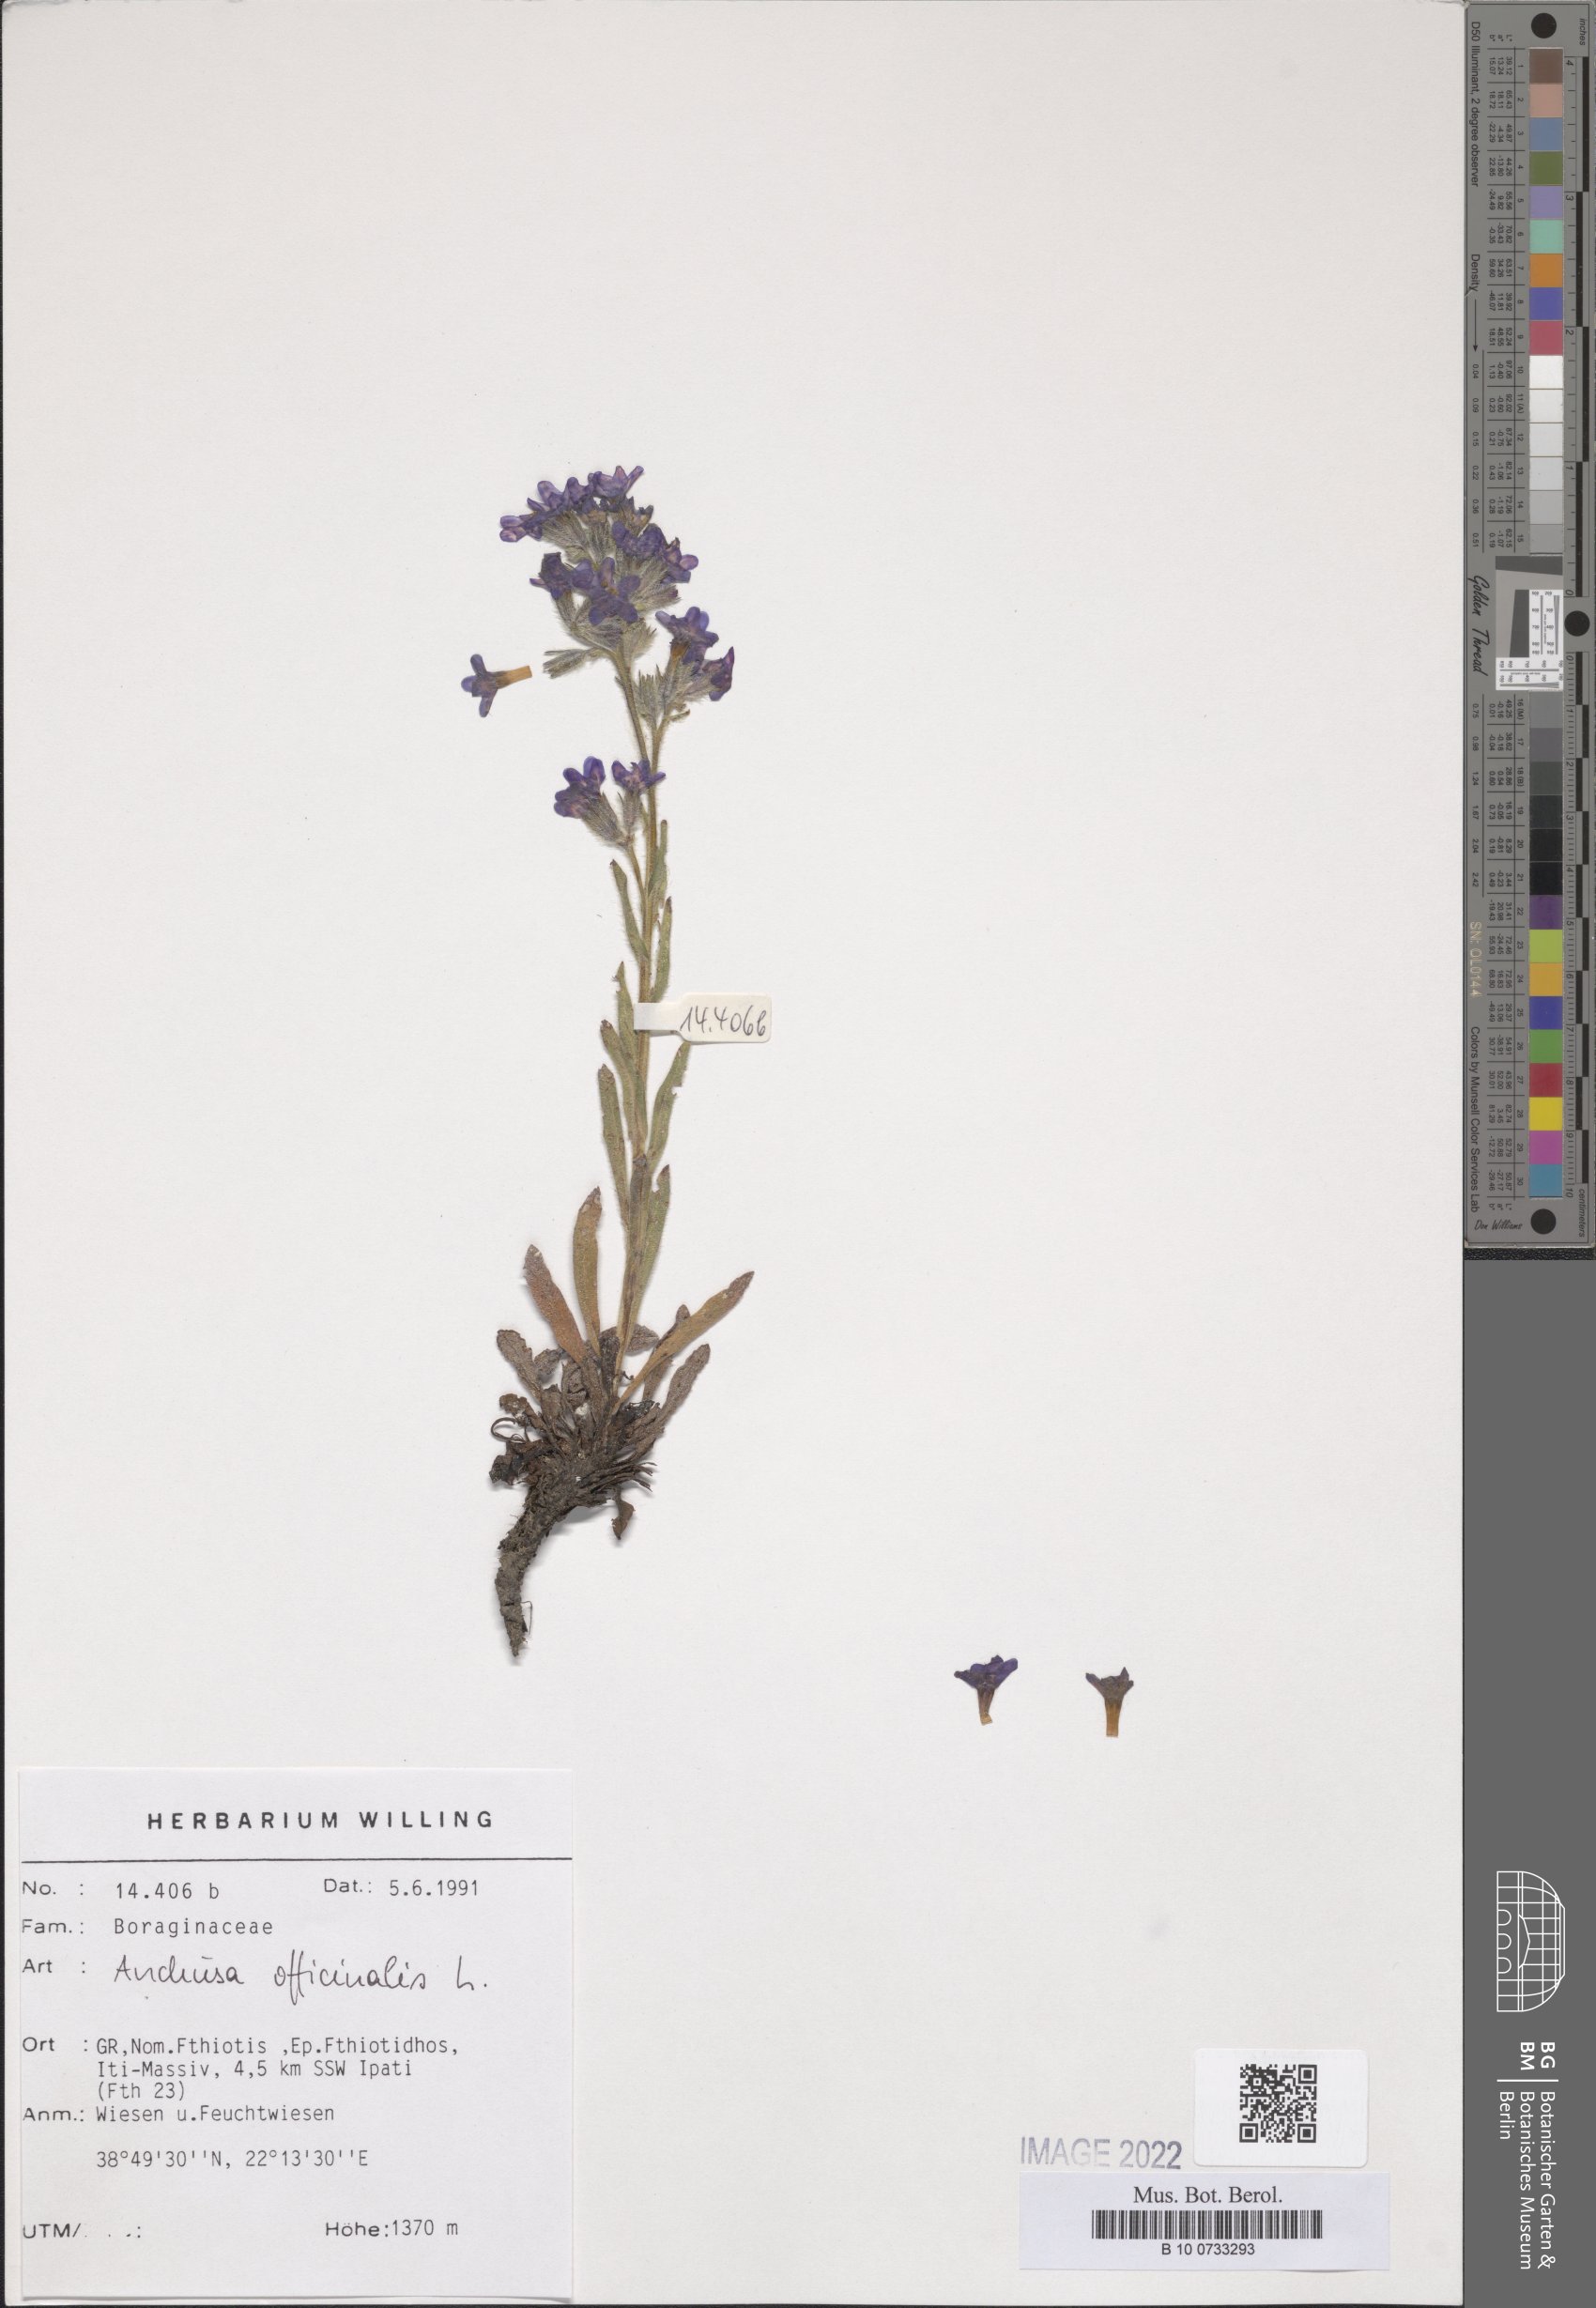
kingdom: Plantae
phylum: Tracheophyta
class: Magnoliopsida
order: Boraginales
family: Boraginaceae
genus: Anchusa
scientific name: Anchusa officinalis
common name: Alkanet
